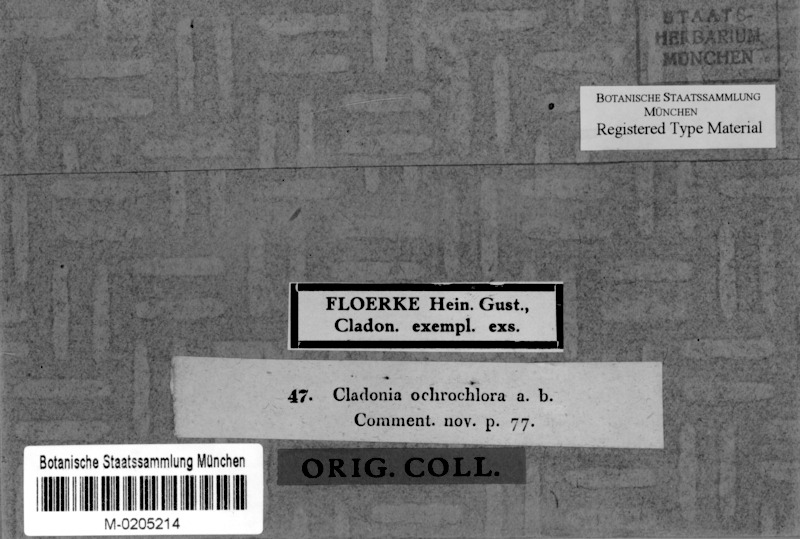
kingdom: Fungi
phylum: Ascomycota
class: Lecanoromycetes
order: Lecanorales
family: Cladoniaceae
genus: Cladonia
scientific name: Cladonia ochrochlora
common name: Smooth-footed powderhorn
